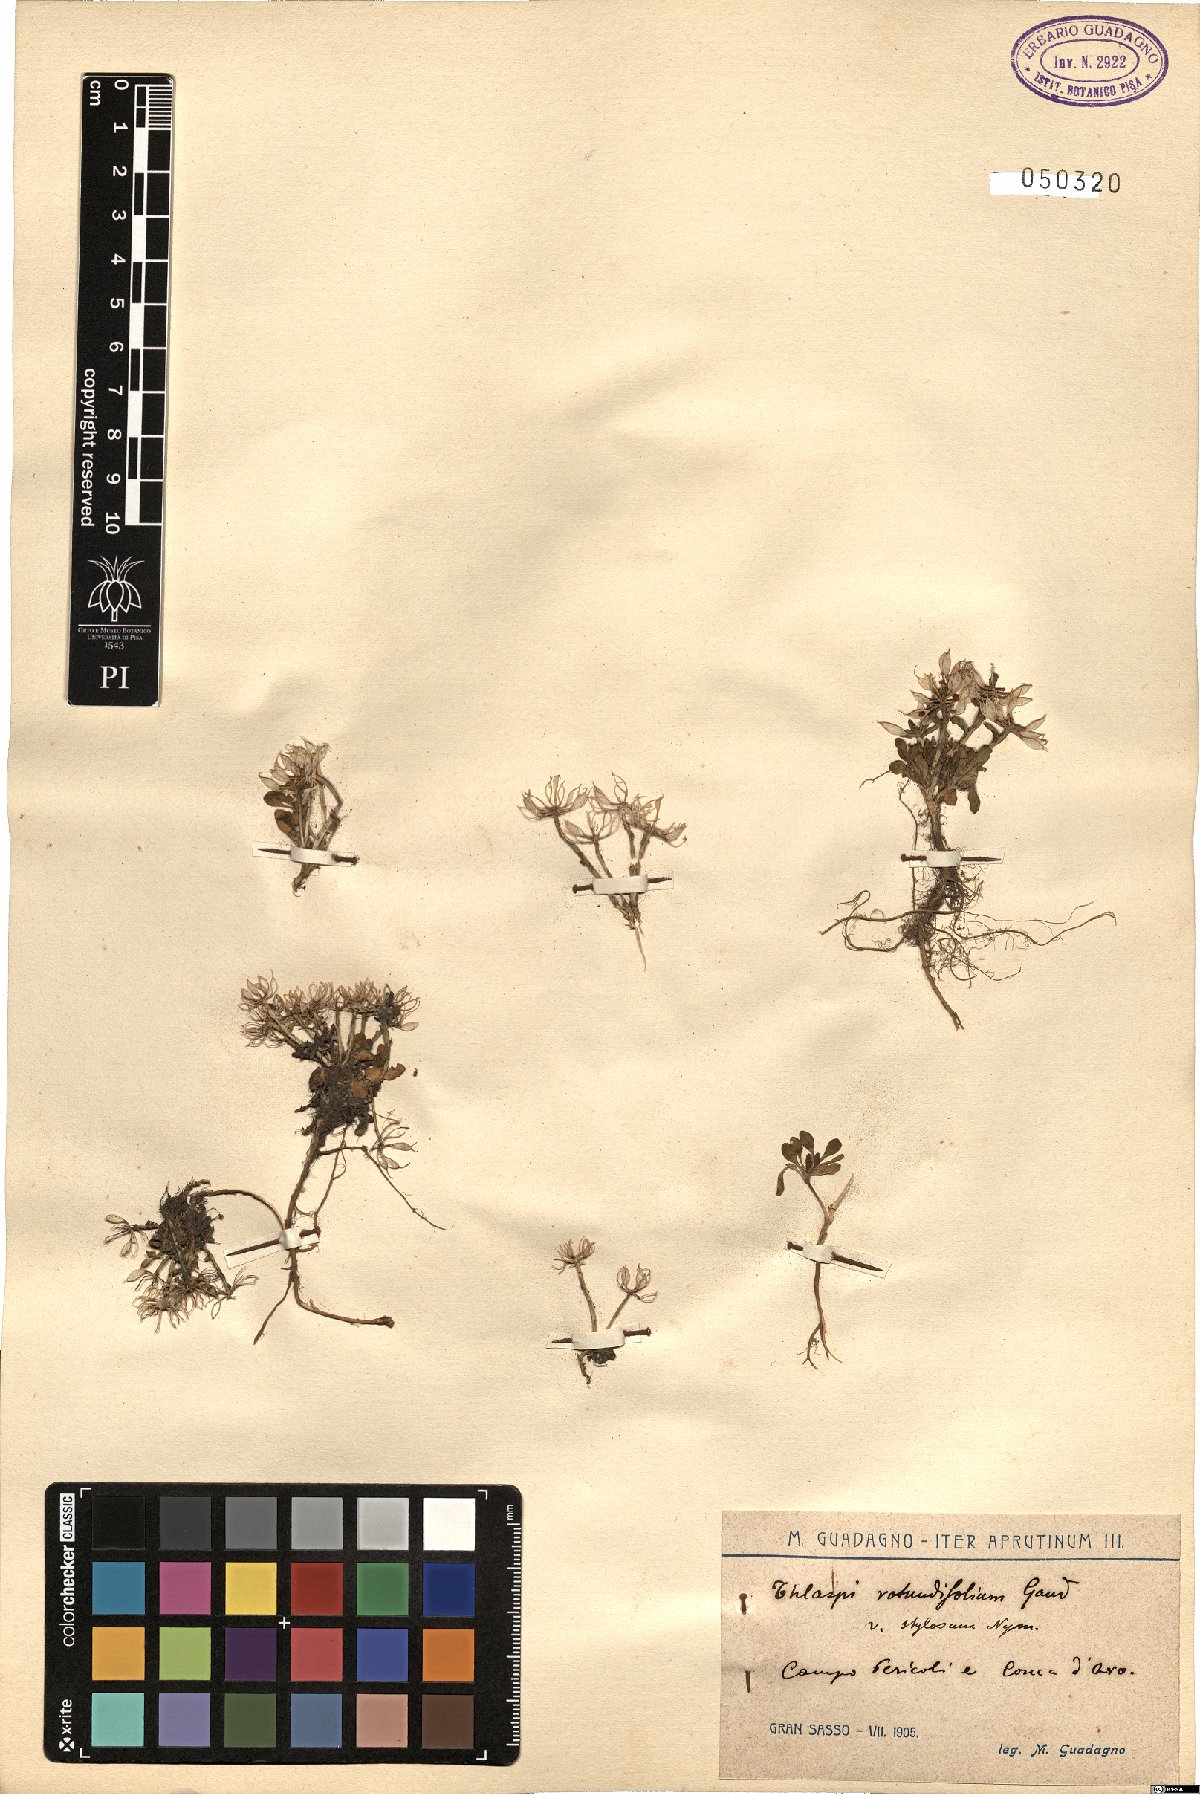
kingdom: Plantae
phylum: Tracheophyta
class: Magnoliopsida
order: Brassicales
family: Brassicaceae
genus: Noccaea
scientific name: Noccaea
